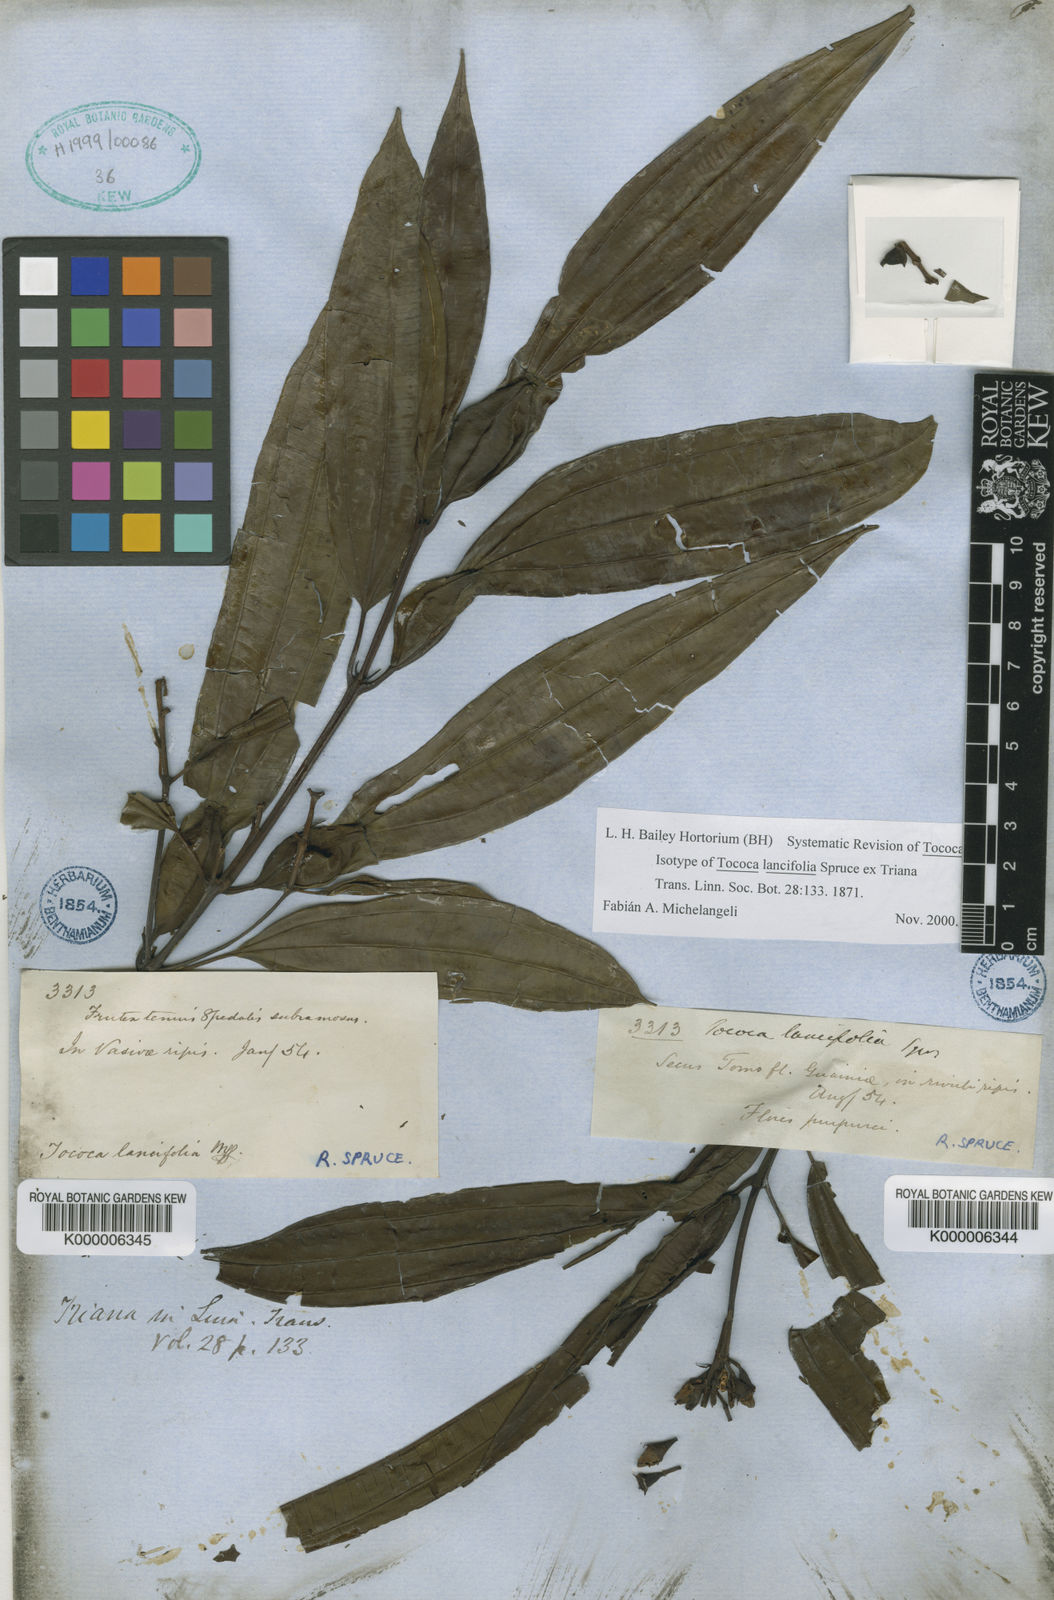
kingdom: Plantae
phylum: Tracheophyta
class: Magnoliopsida
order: Myrtales
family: Melastomataceae
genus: Miconia
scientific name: Miconia lancifolia
